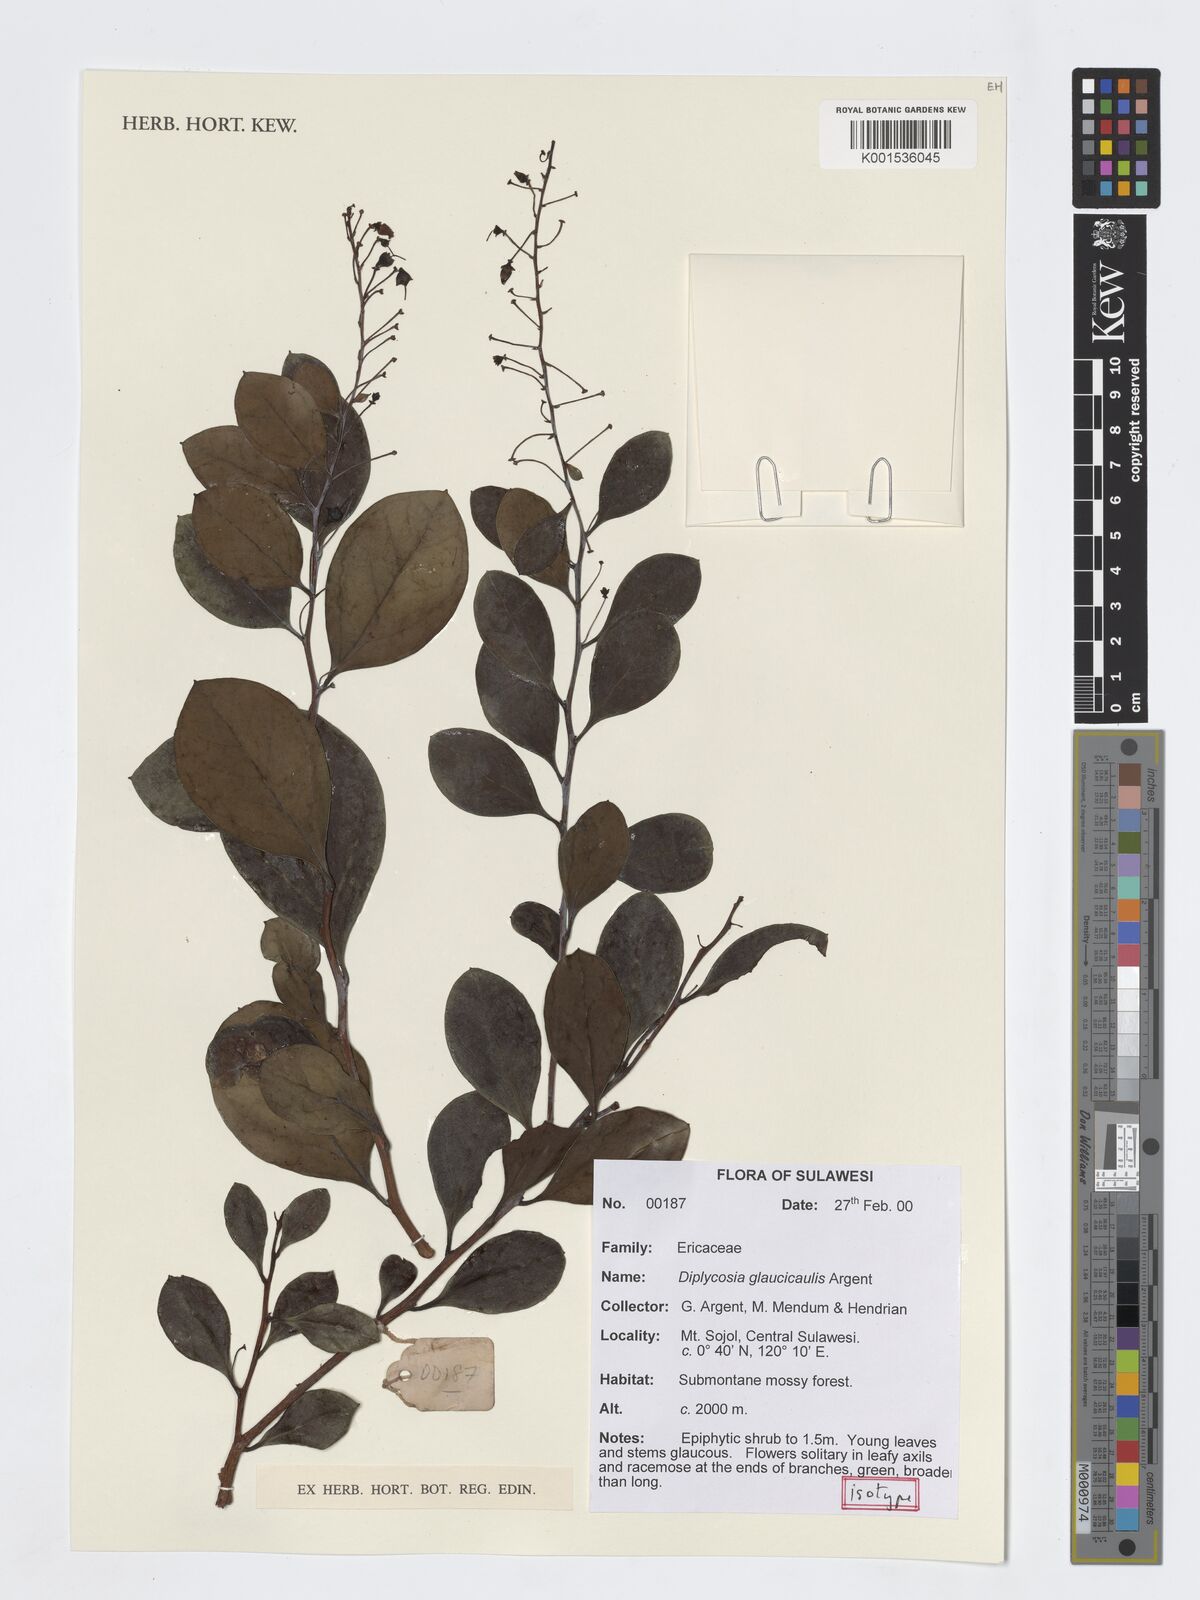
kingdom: Plantae
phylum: Tracheophyta
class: Magnoliopsida
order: Ericales
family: Ericaceae
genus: Gaultheria
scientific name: Gaultheria glaucicaulis
